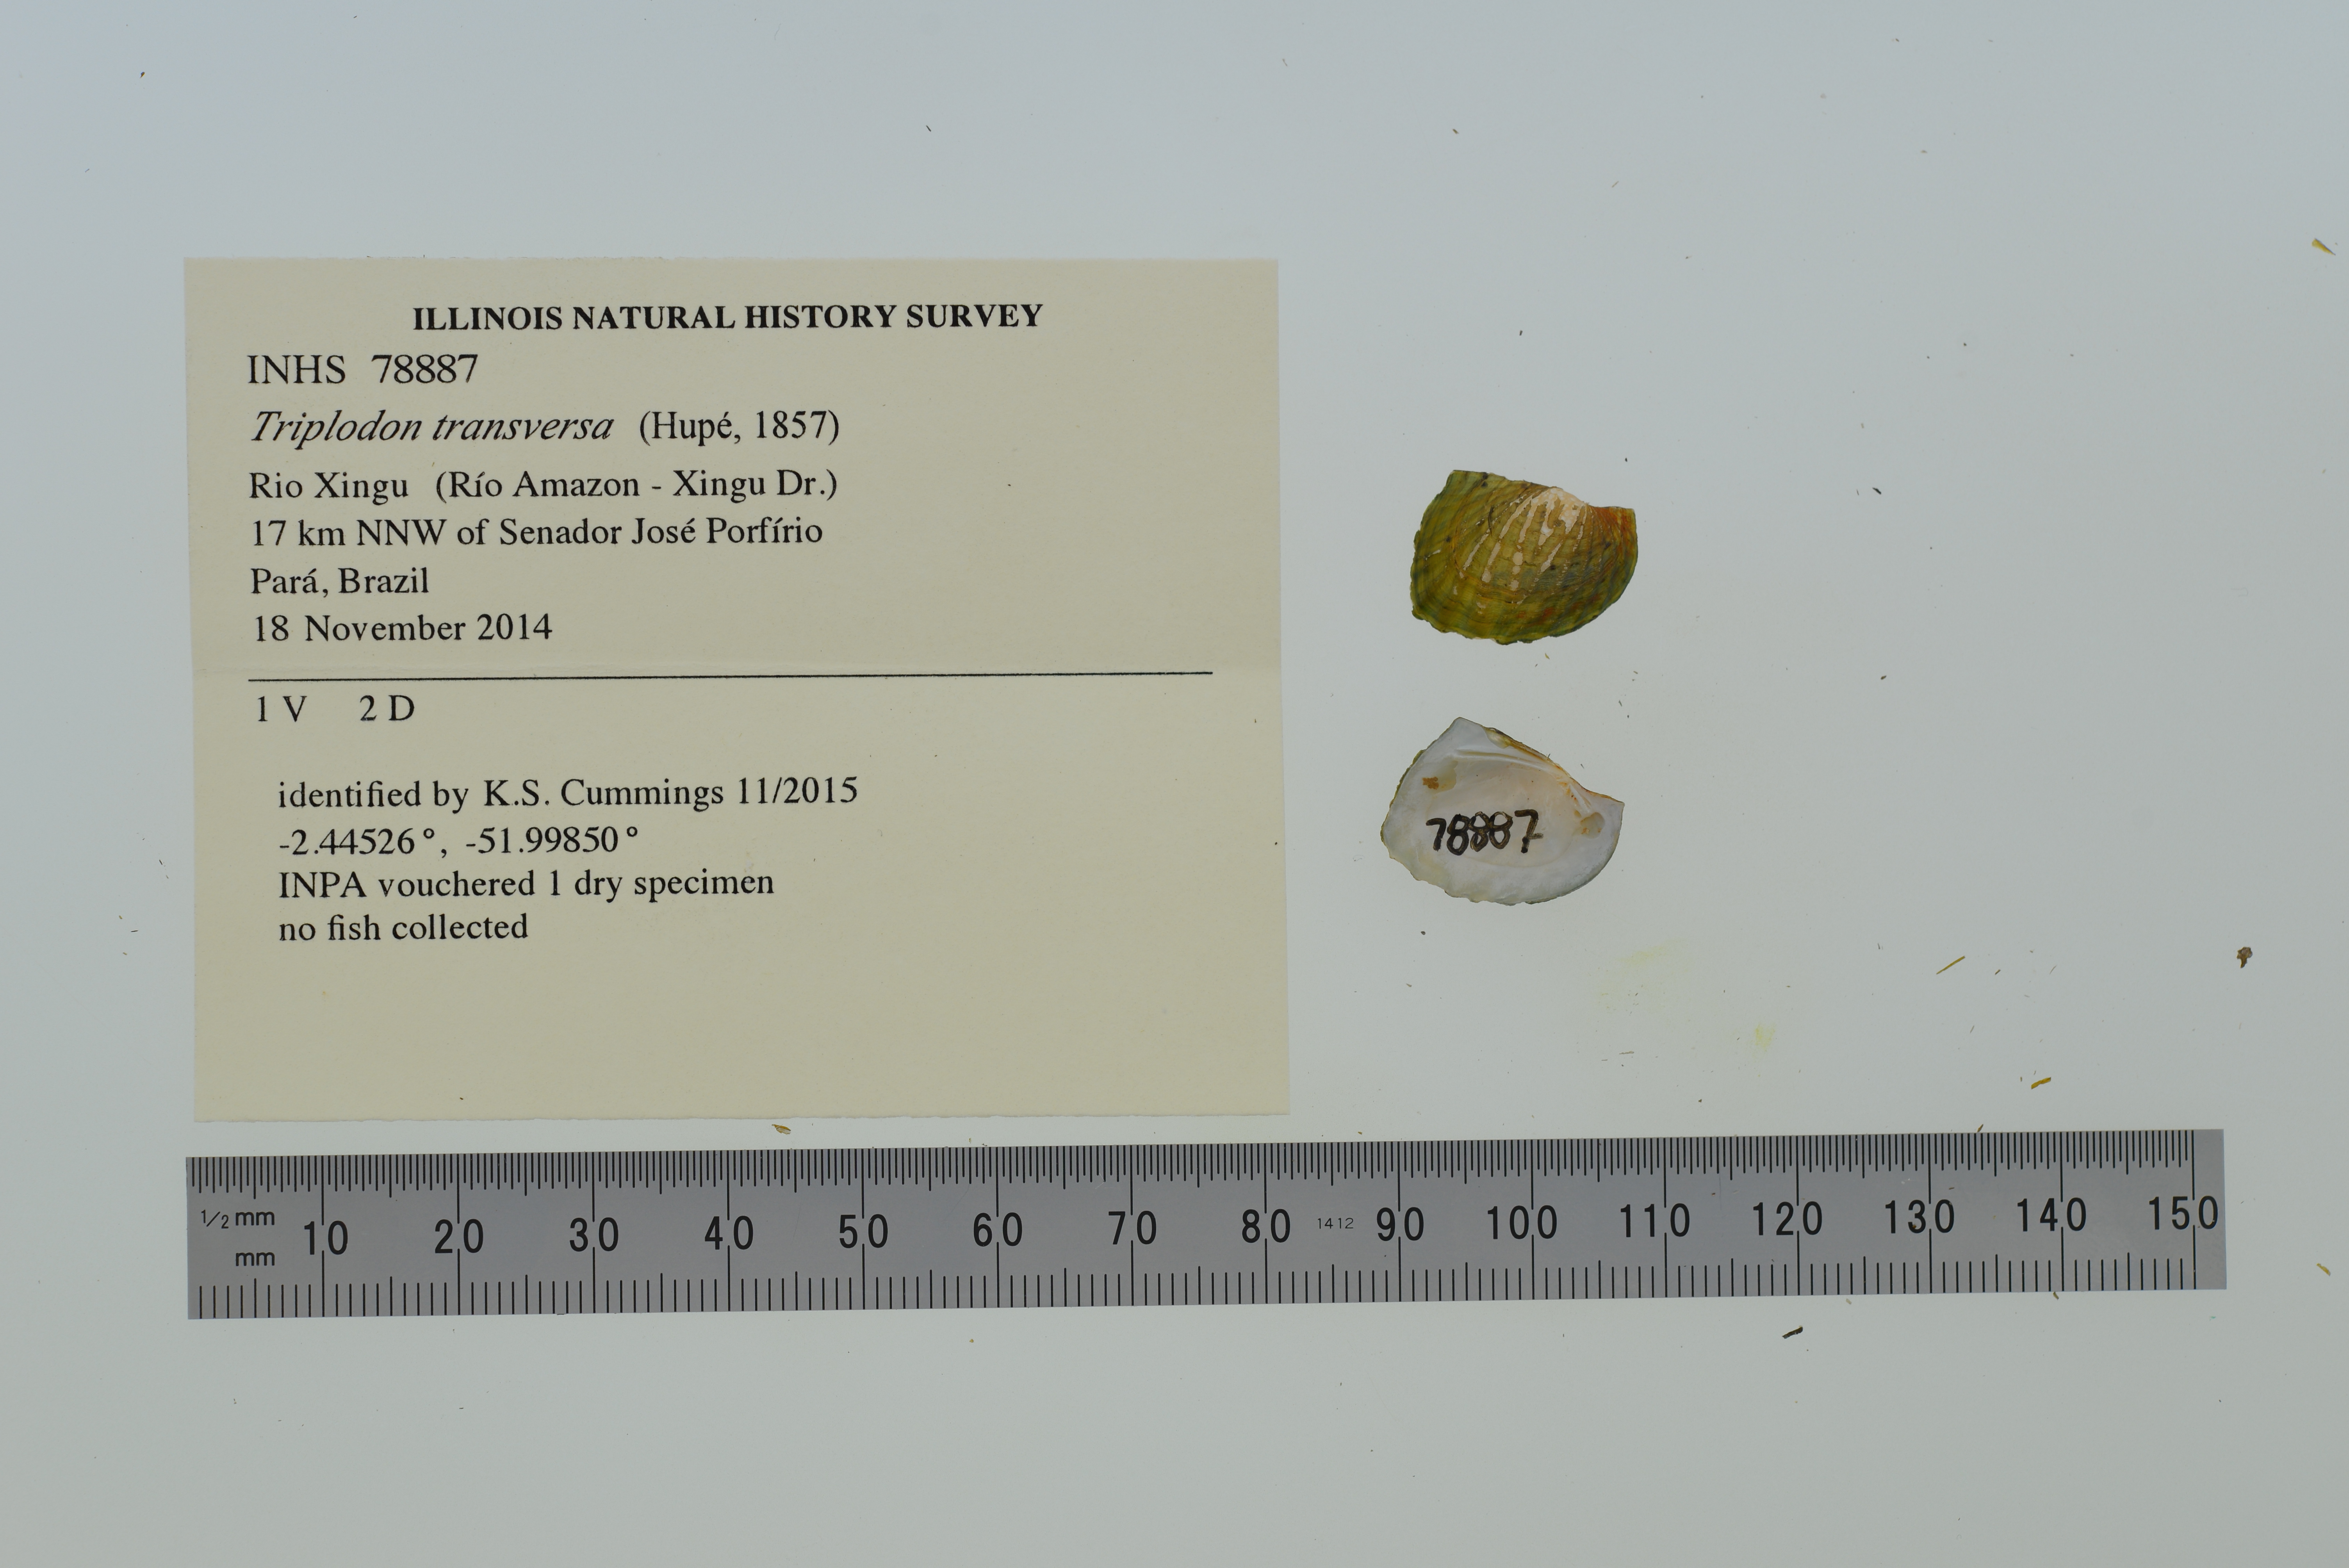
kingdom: Animalia
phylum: Mollusca
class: Bivalvia
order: Unionida
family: Hyriidae
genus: Triplodon
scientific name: Triplodon
